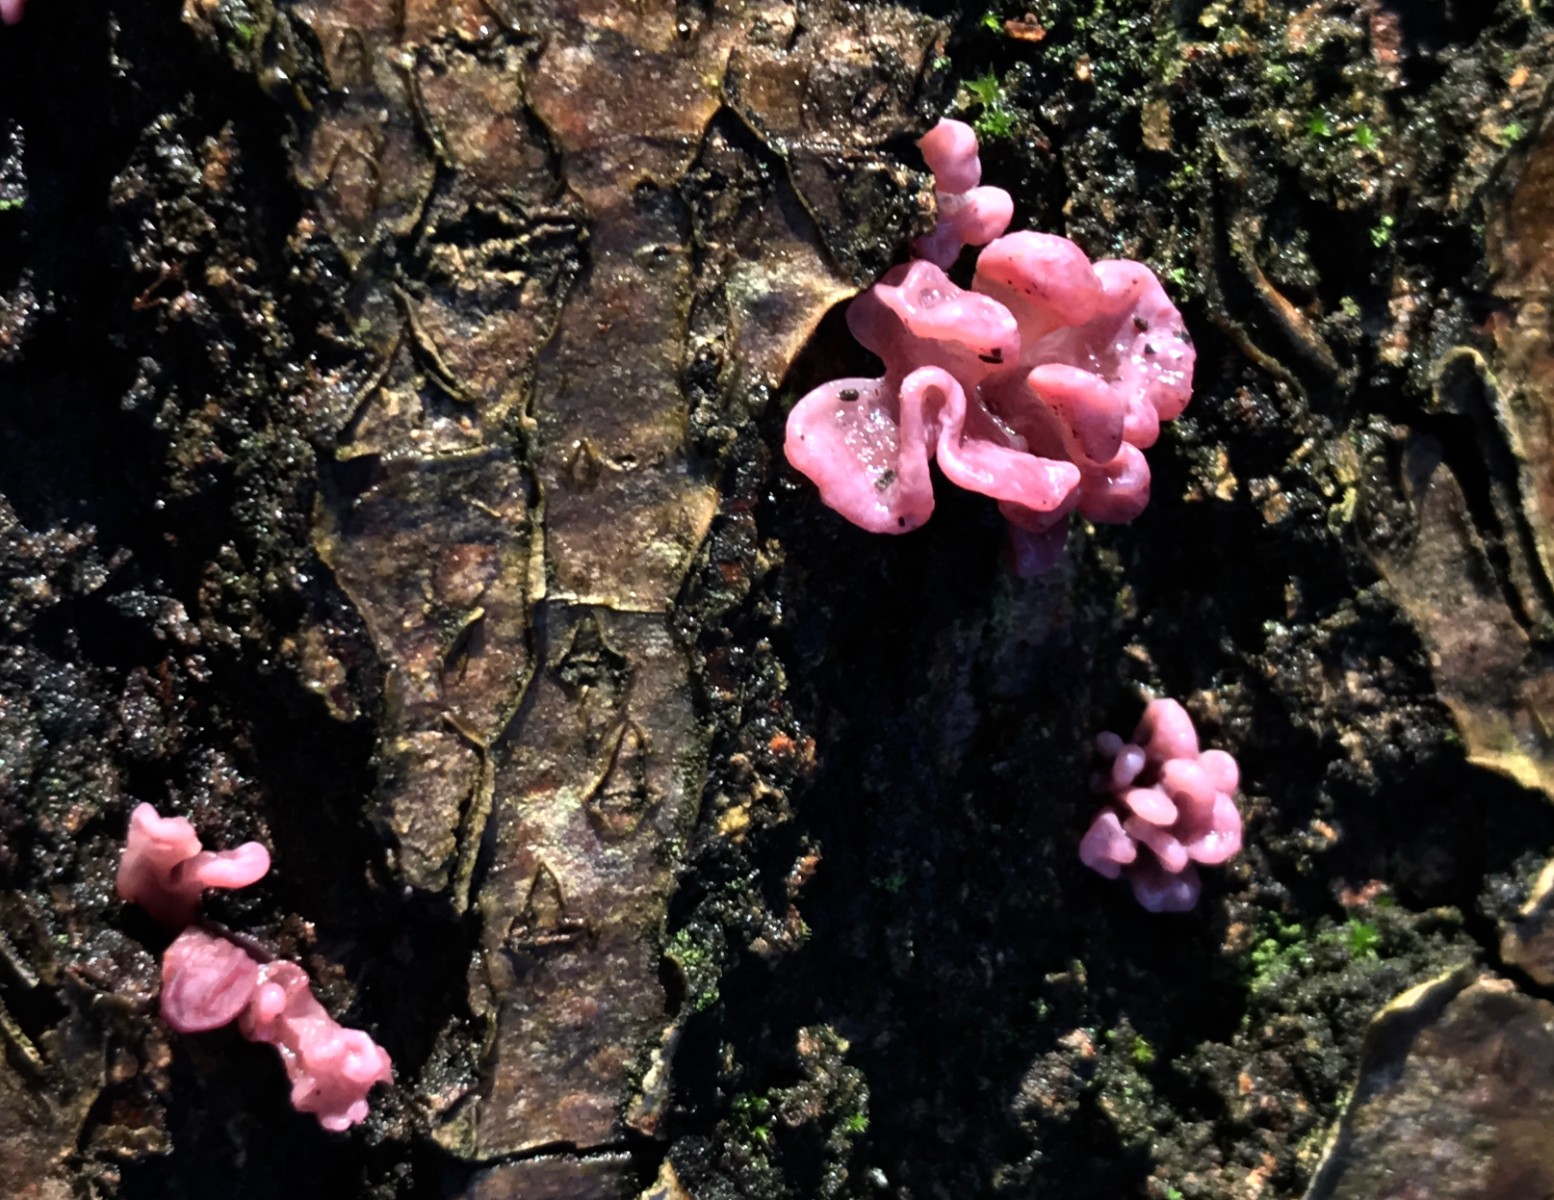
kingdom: Fungi
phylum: Ascomycota
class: Leotiomycetes
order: Helotiales
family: Gelatinodiscaceae
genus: Ascocoryne
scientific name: Ascocoryne sarcoides
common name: rødlilla sejskive
